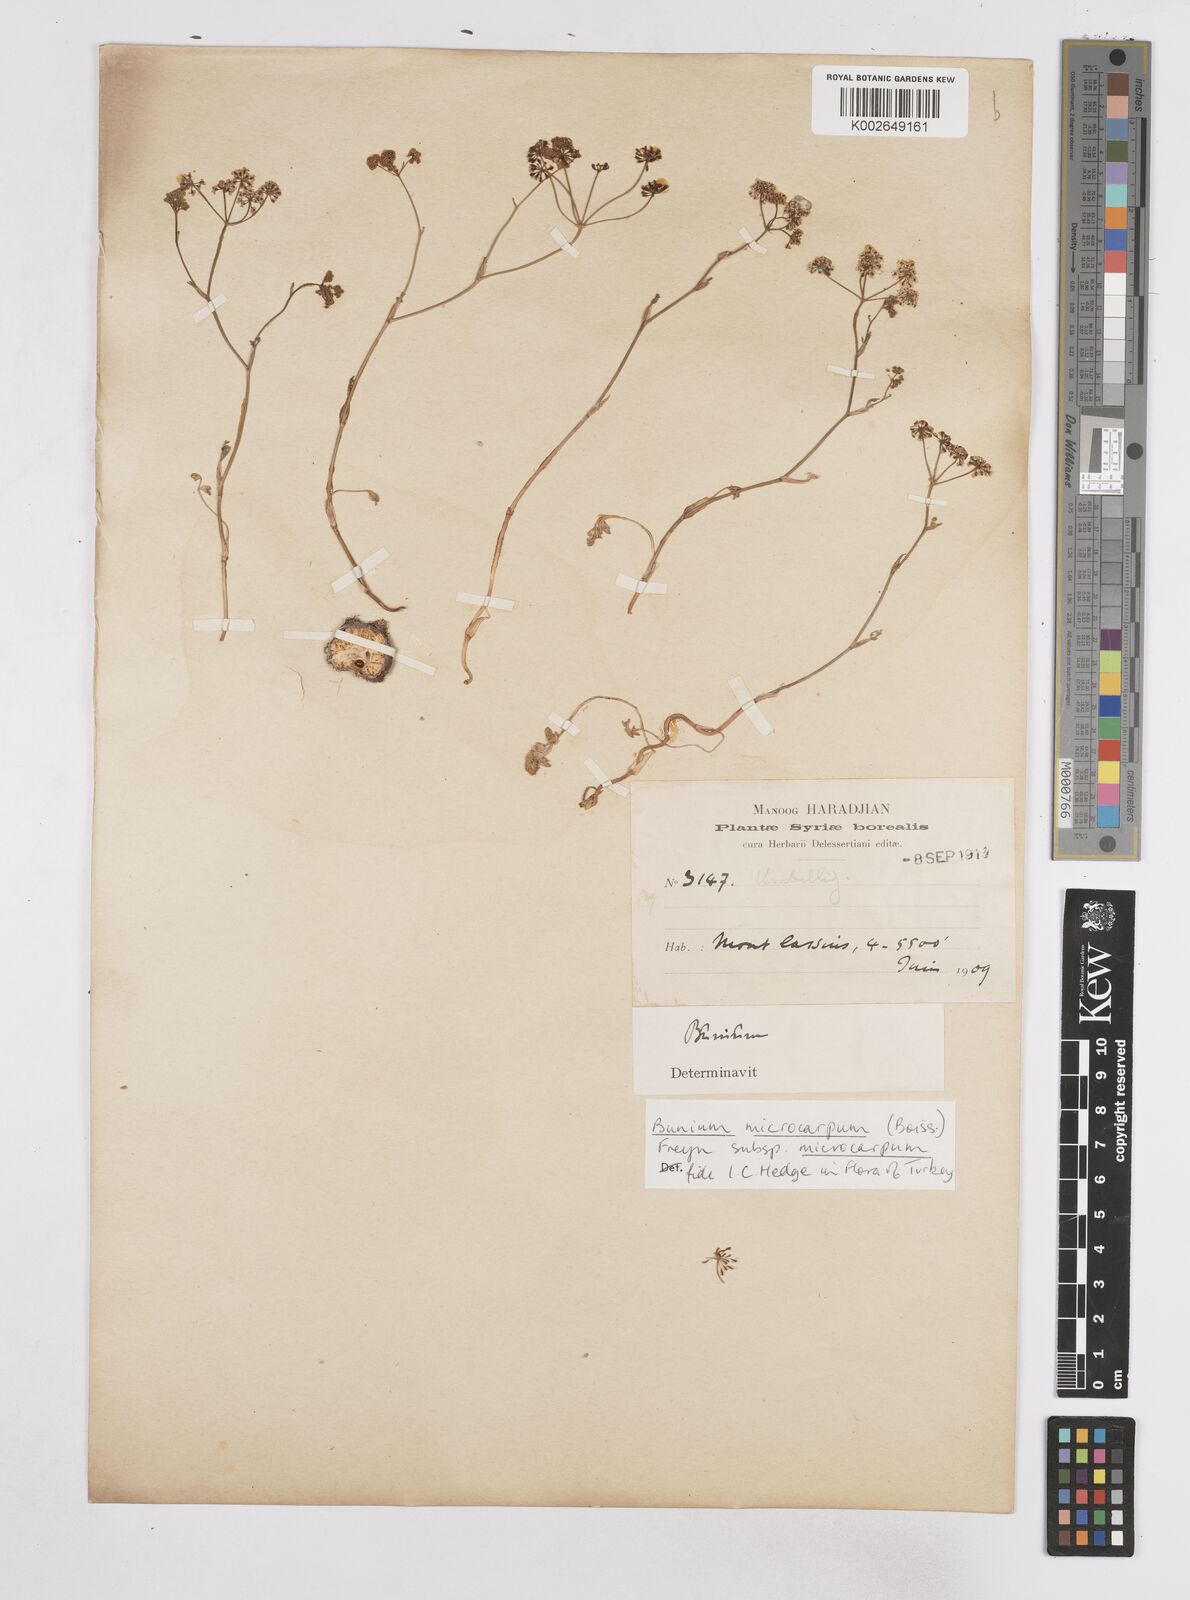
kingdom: Plantae
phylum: Tracheophyta
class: Magnoliopsida
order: Apiales
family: Apiaceae
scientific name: Apiaceae
